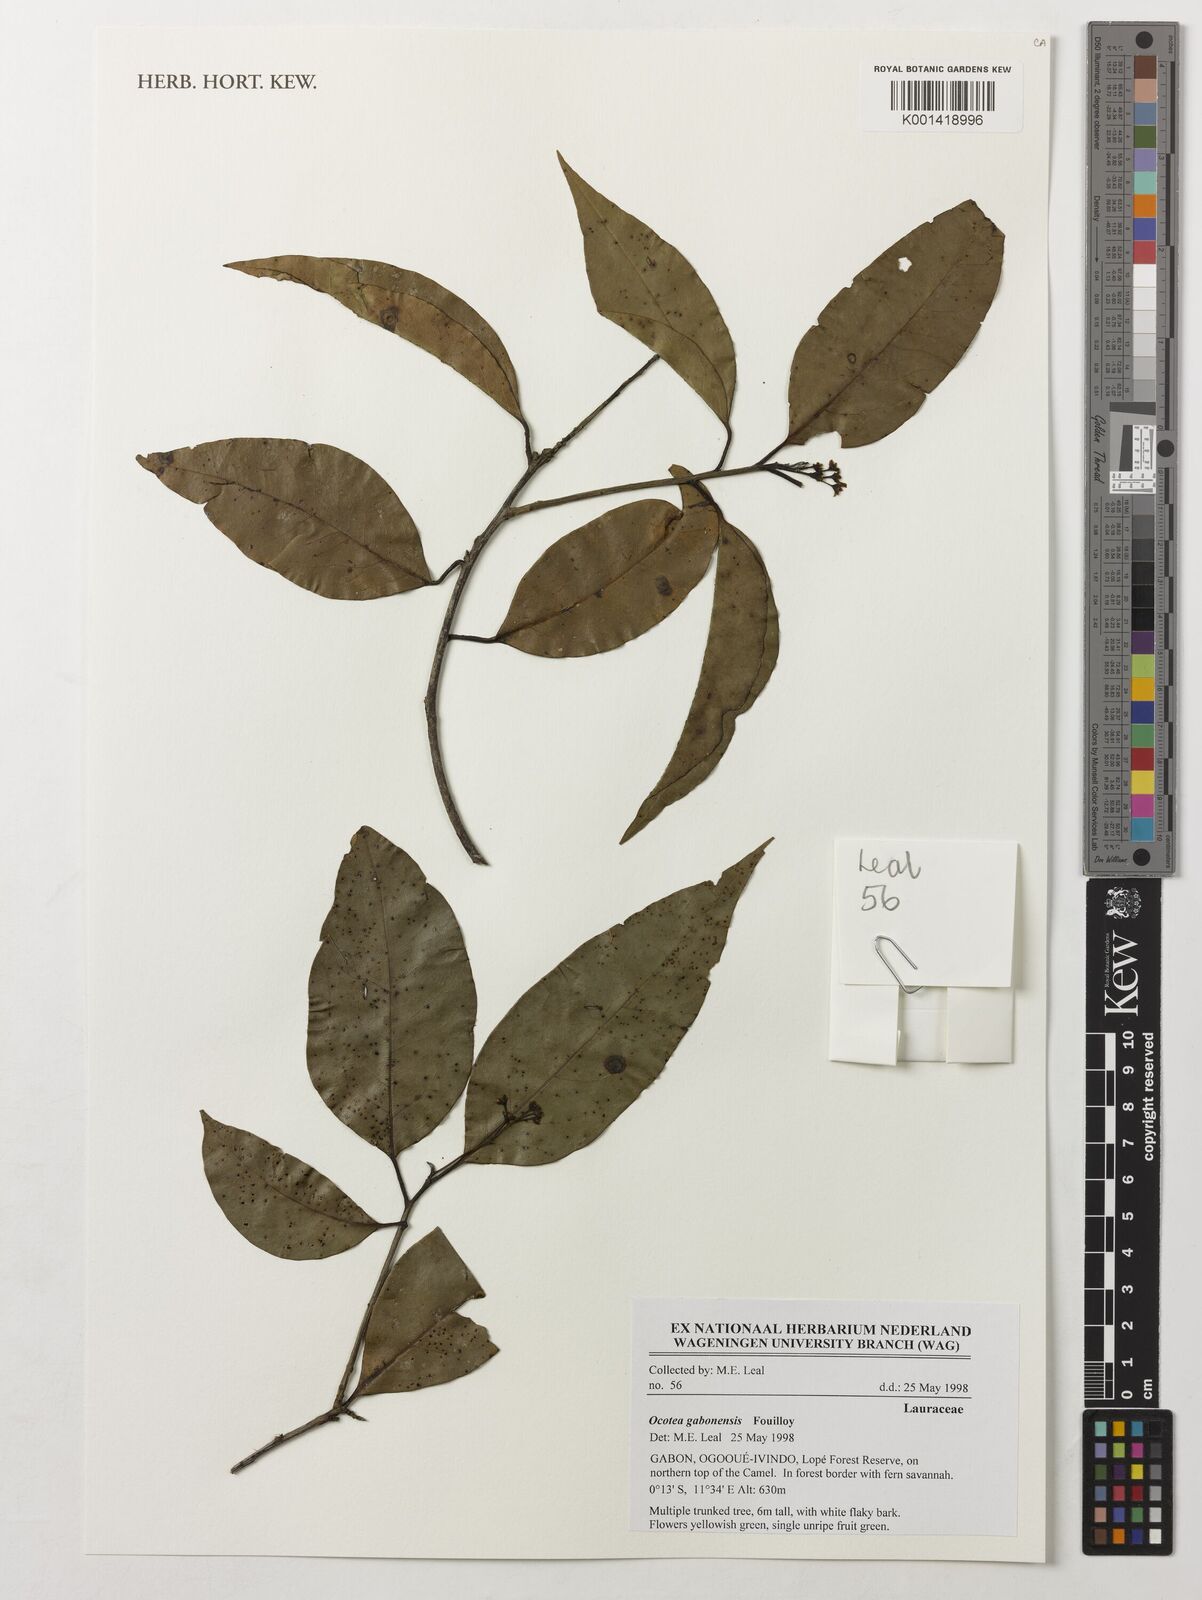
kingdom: Plantae
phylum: Tracheophyta
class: Magnoliopsida
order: Laurales
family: Lauraceae
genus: Ocotea
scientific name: Ocotea gabonensis
